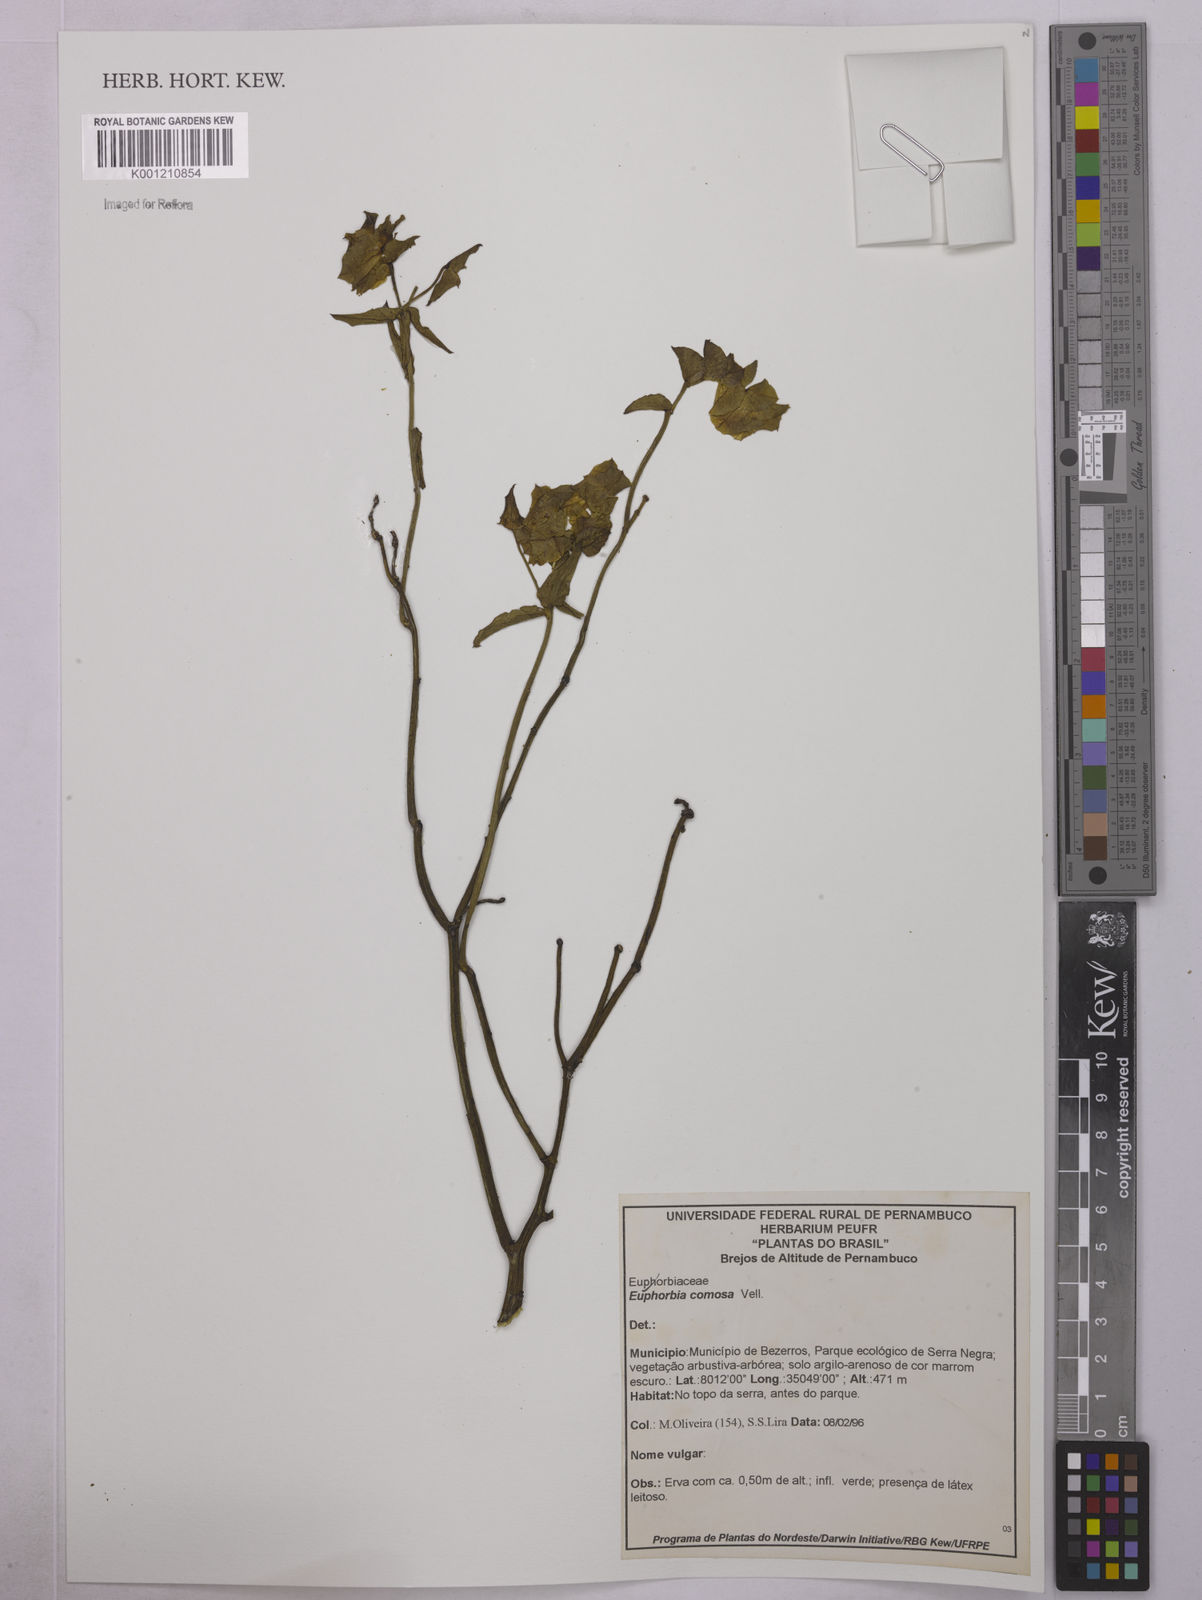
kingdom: Plantae
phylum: Tracheophyta
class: Magnoliopsida
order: Malpighiales
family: Euphorbiaceae
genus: Euphorbia
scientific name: Euphorbia comosa
